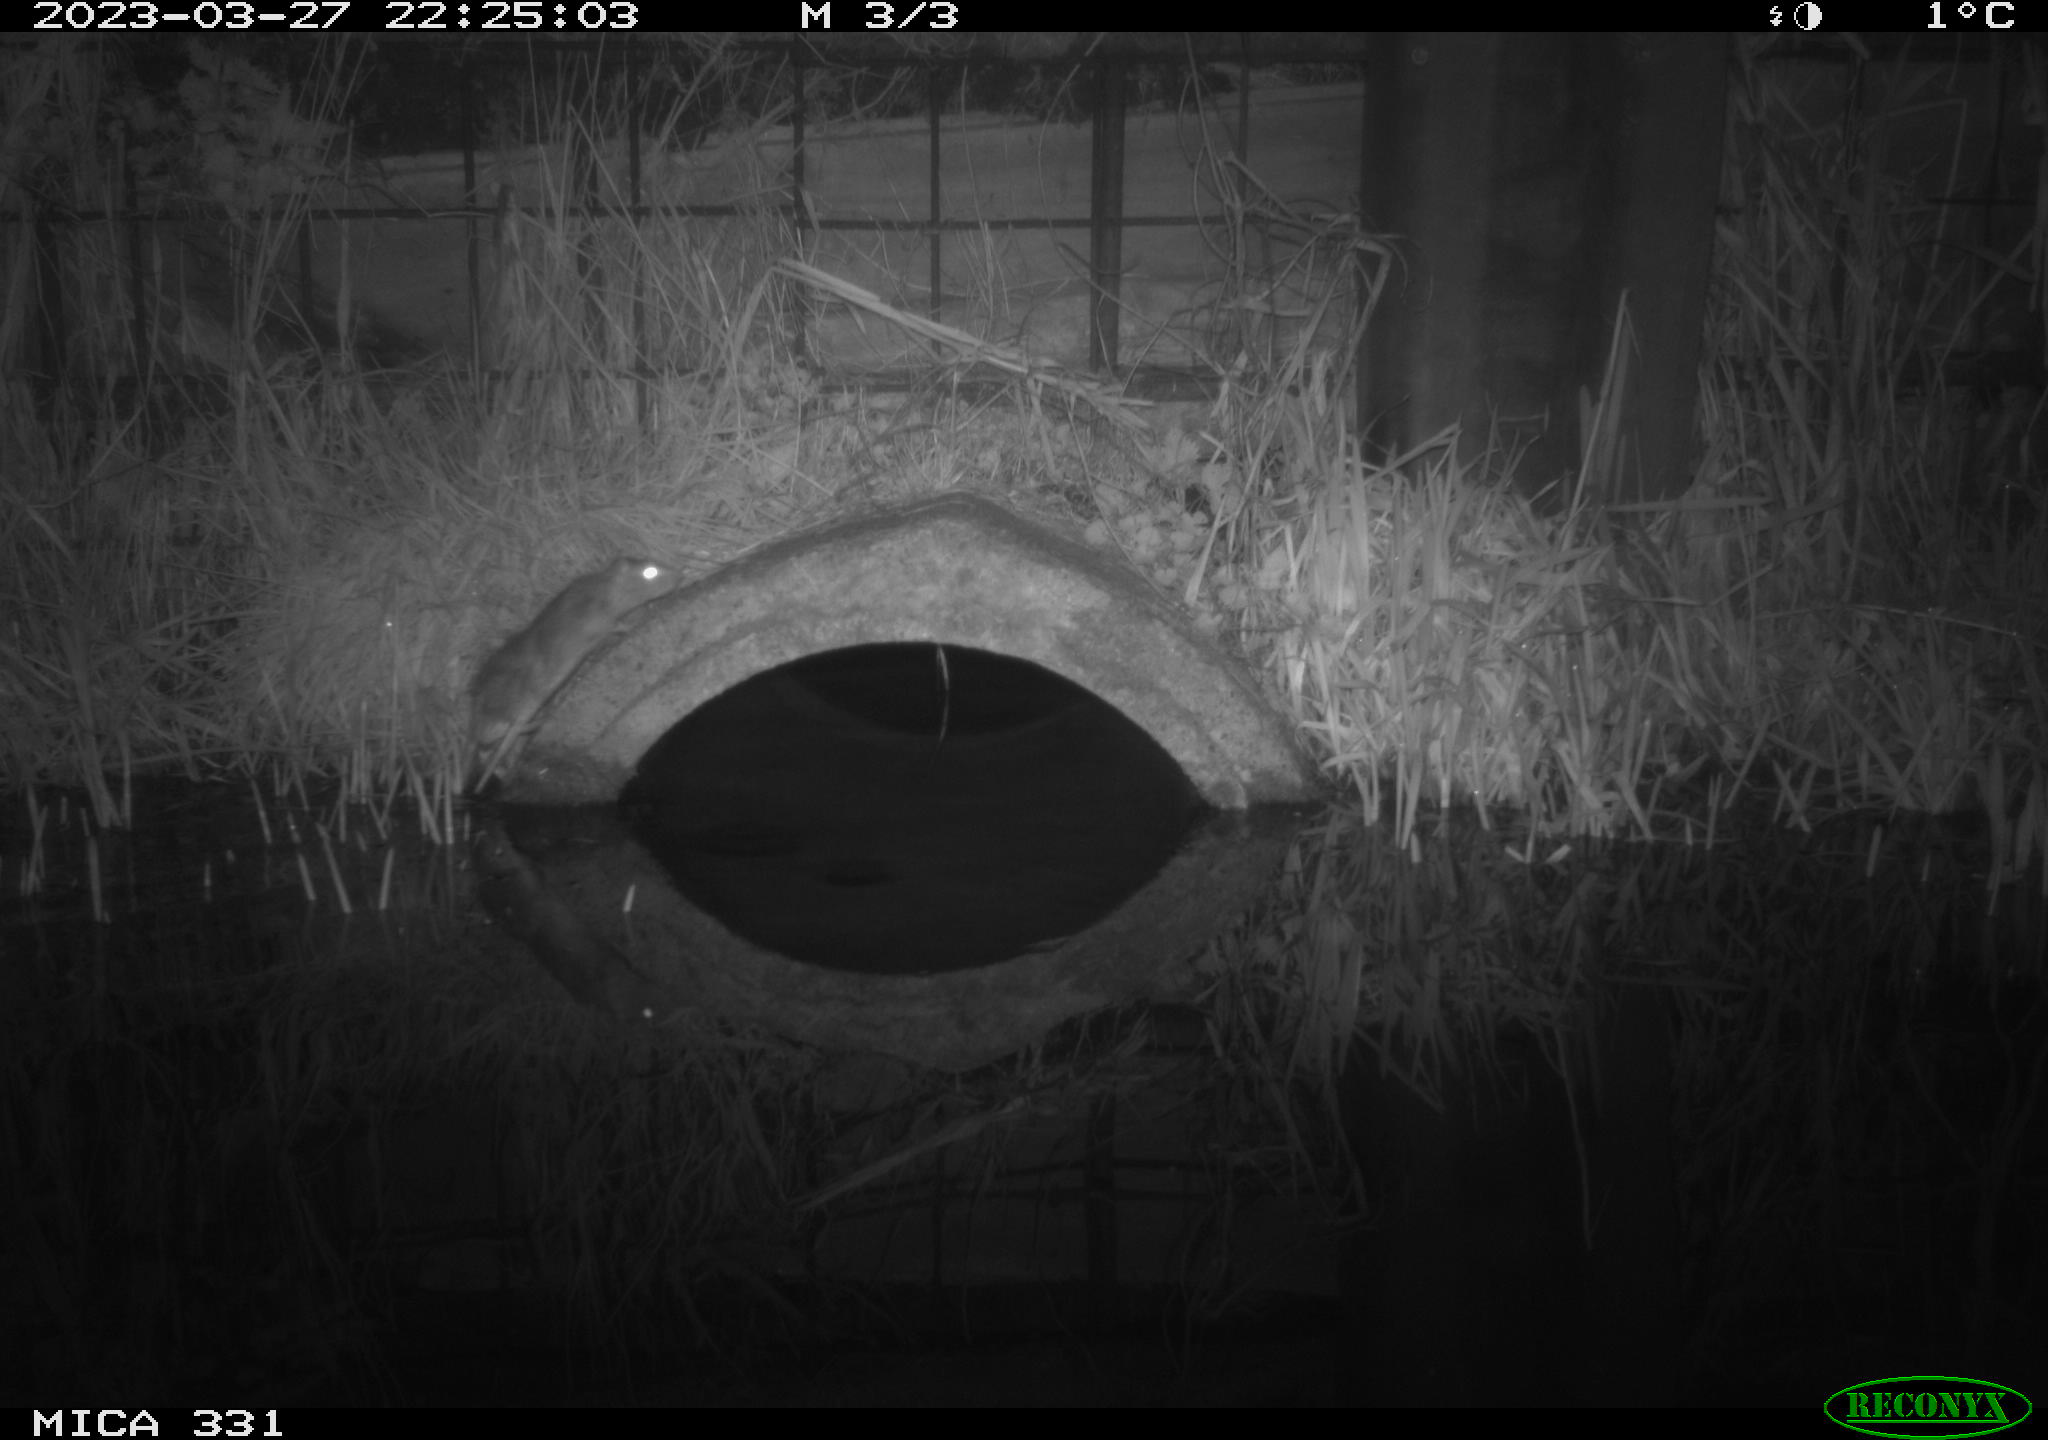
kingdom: Animalia
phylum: Chordata
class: Mammalia
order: Rodentia
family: Muridae
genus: Rattus
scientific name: Rattus norvegicus
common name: Brown rat
